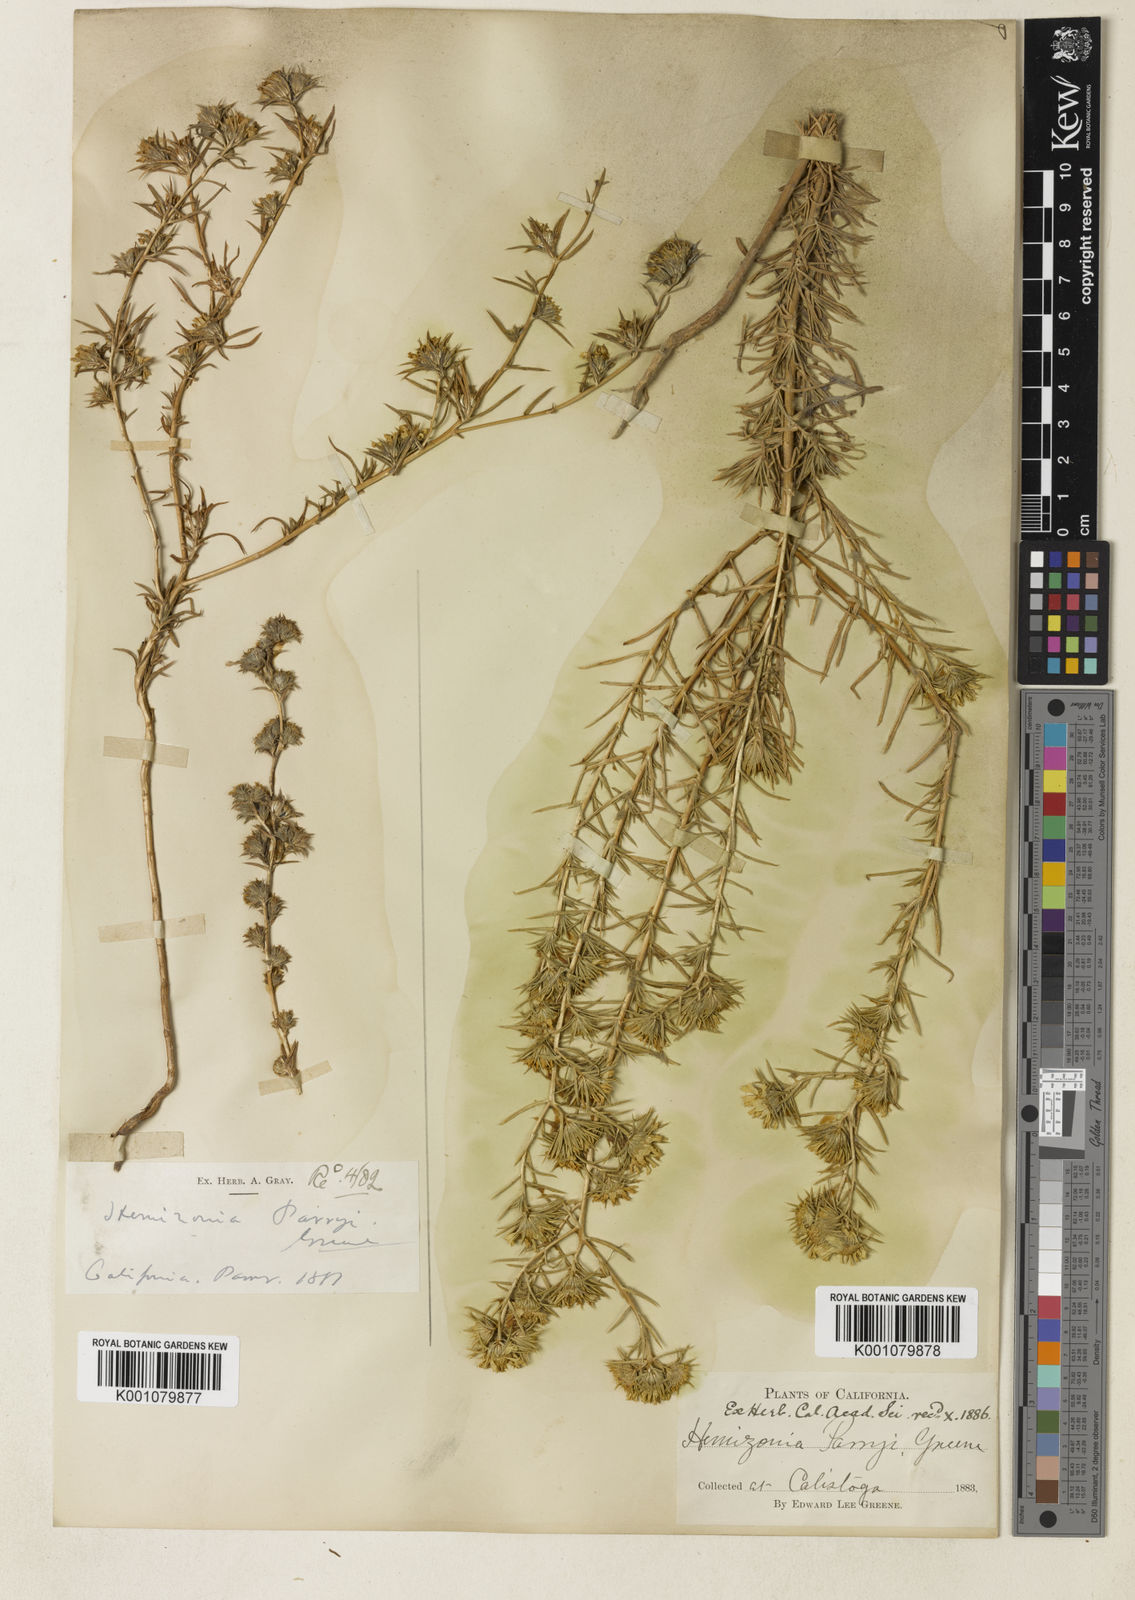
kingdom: Plantae
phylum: Tracheophyta
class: Magnoliopsida
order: Asterales
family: Asteraceae
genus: Centromadia
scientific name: Centromadia parryi
